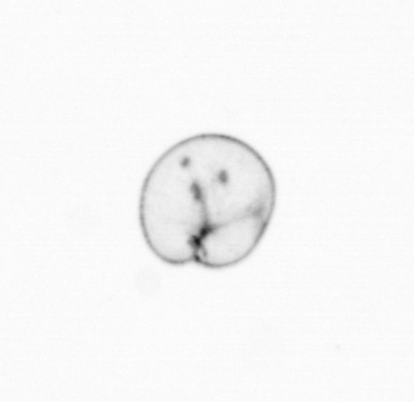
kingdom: Chromista
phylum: Myzozoa
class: Dinophyceae
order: Noctilucales
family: Noctilucaceae
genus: Noctiluca
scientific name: Noctiluca scintillans
